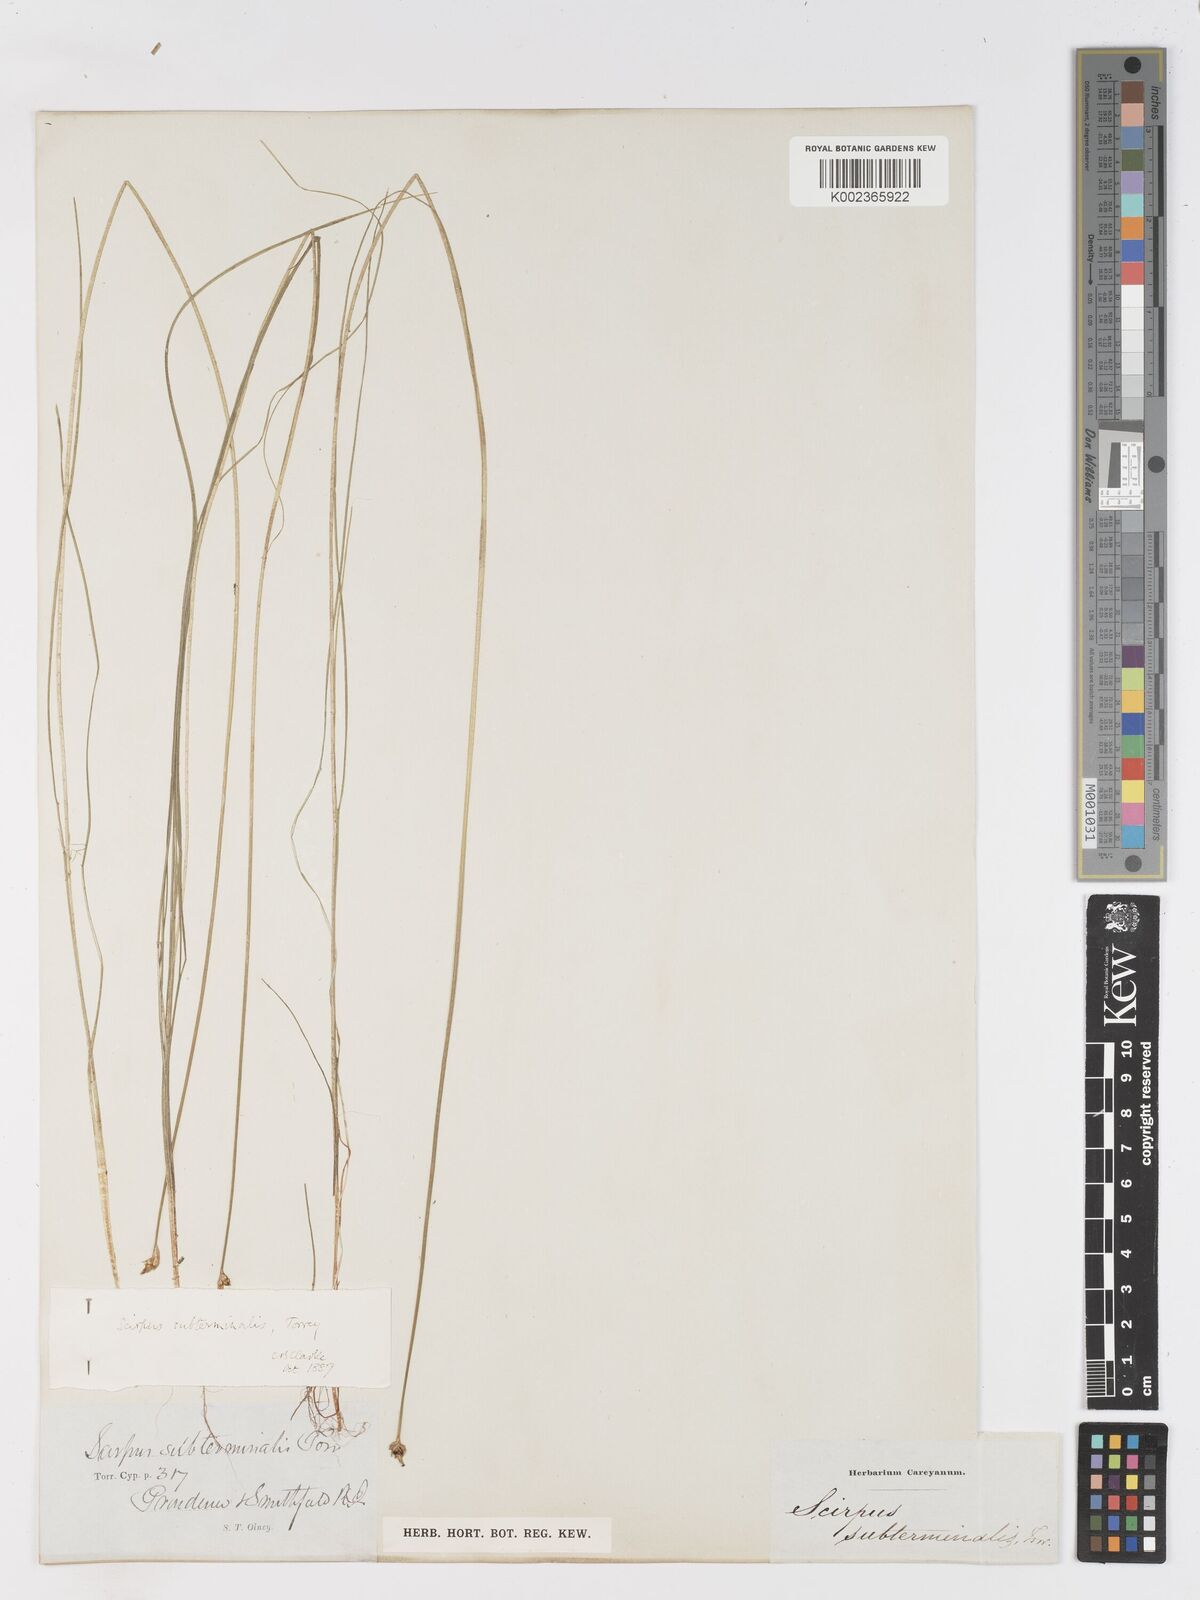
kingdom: Plantae
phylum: Tracheophyta
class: Liliopsida
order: Poales
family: Cyperaceae
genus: Schoenoplectus
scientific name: Schoenoplectus subterminalis
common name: Swaying bulrush
